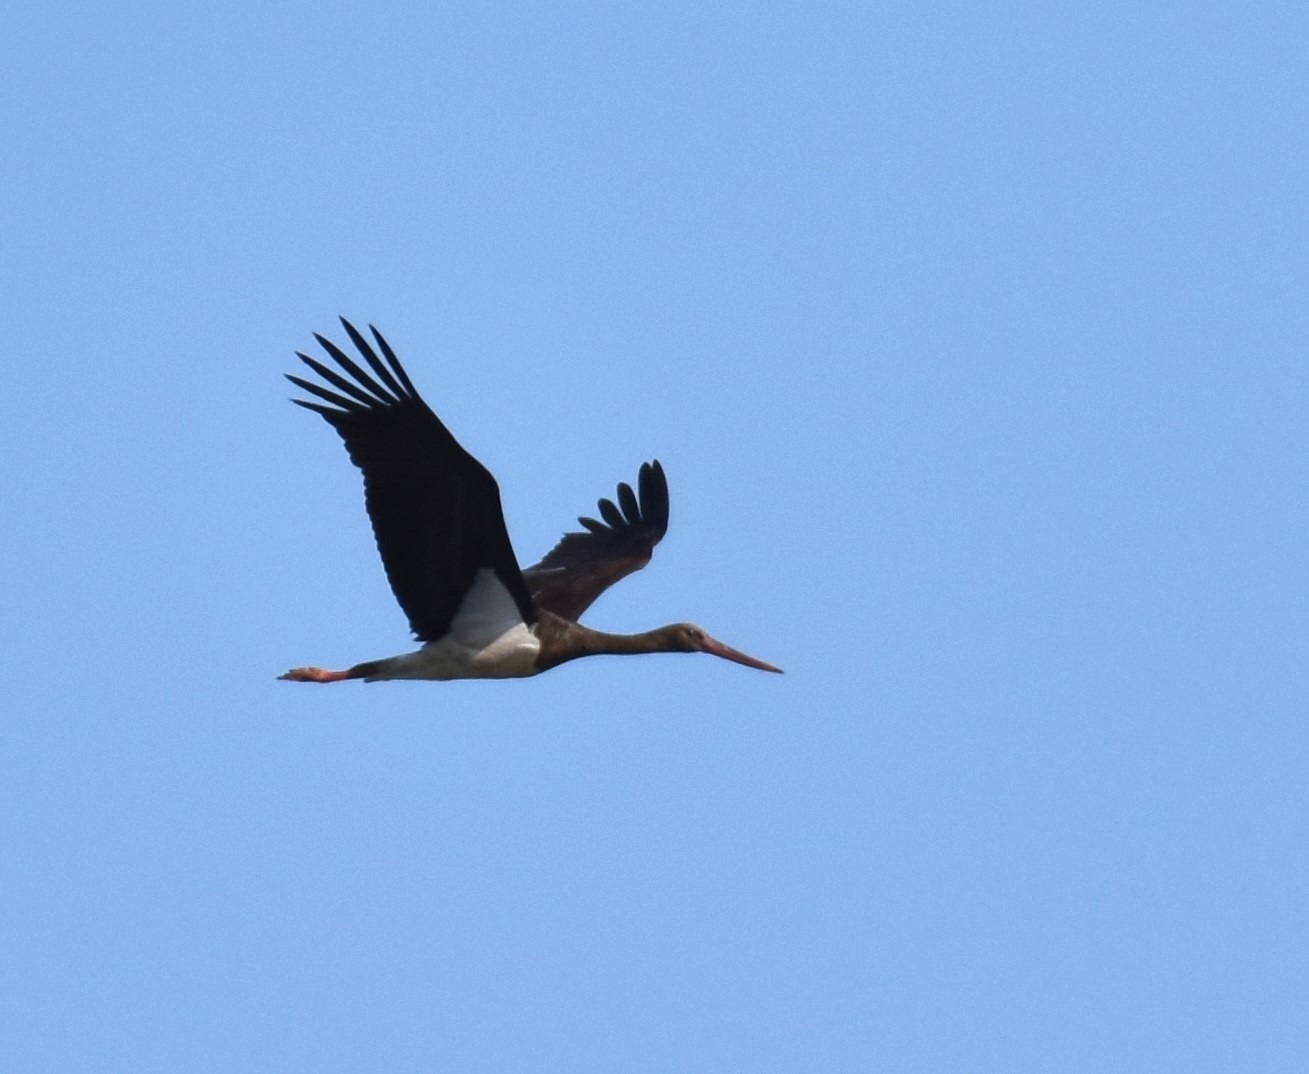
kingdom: Animalia
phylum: Chordata
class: Aves
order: Ciconiiformes
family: Ciconiidae
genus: Ciconia
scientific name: Ciconia nigra
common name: Sort stork
